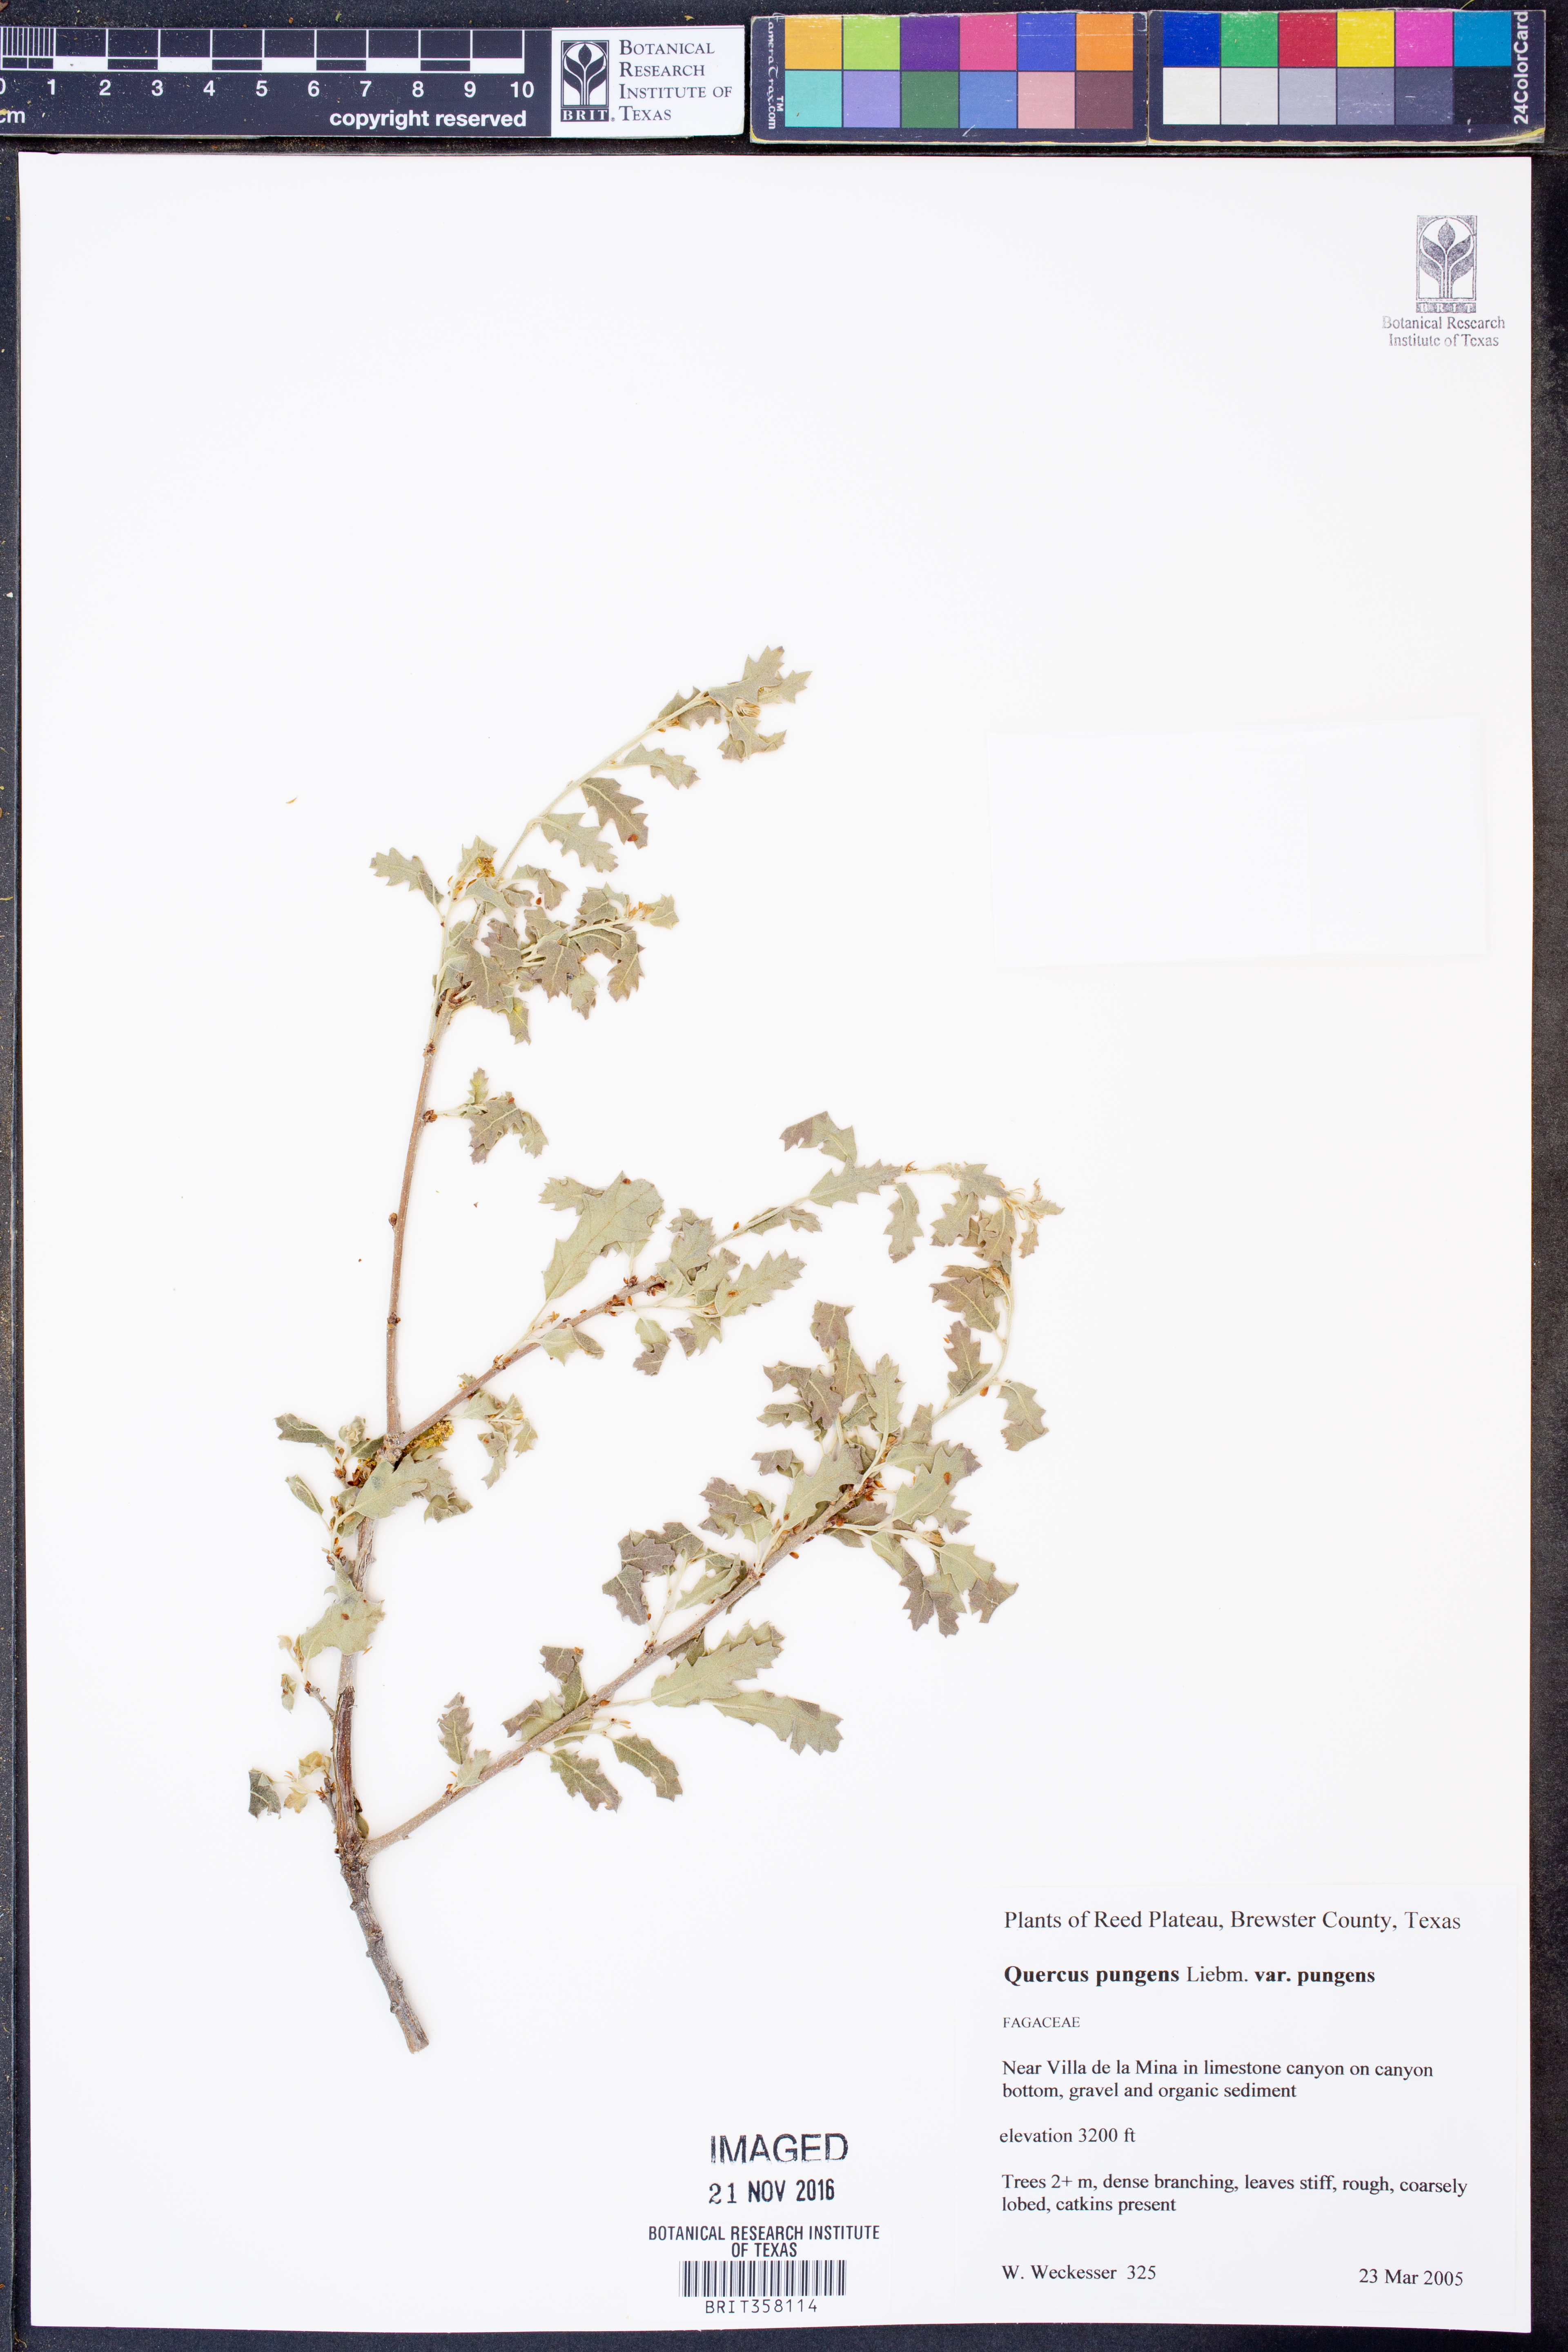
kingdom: Plantae
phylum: Tracheophyta
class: Magnoliopsida
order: Fagales
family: Fagaceae
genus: Quercus
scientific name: Quercus pungens
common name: Pungent oak
